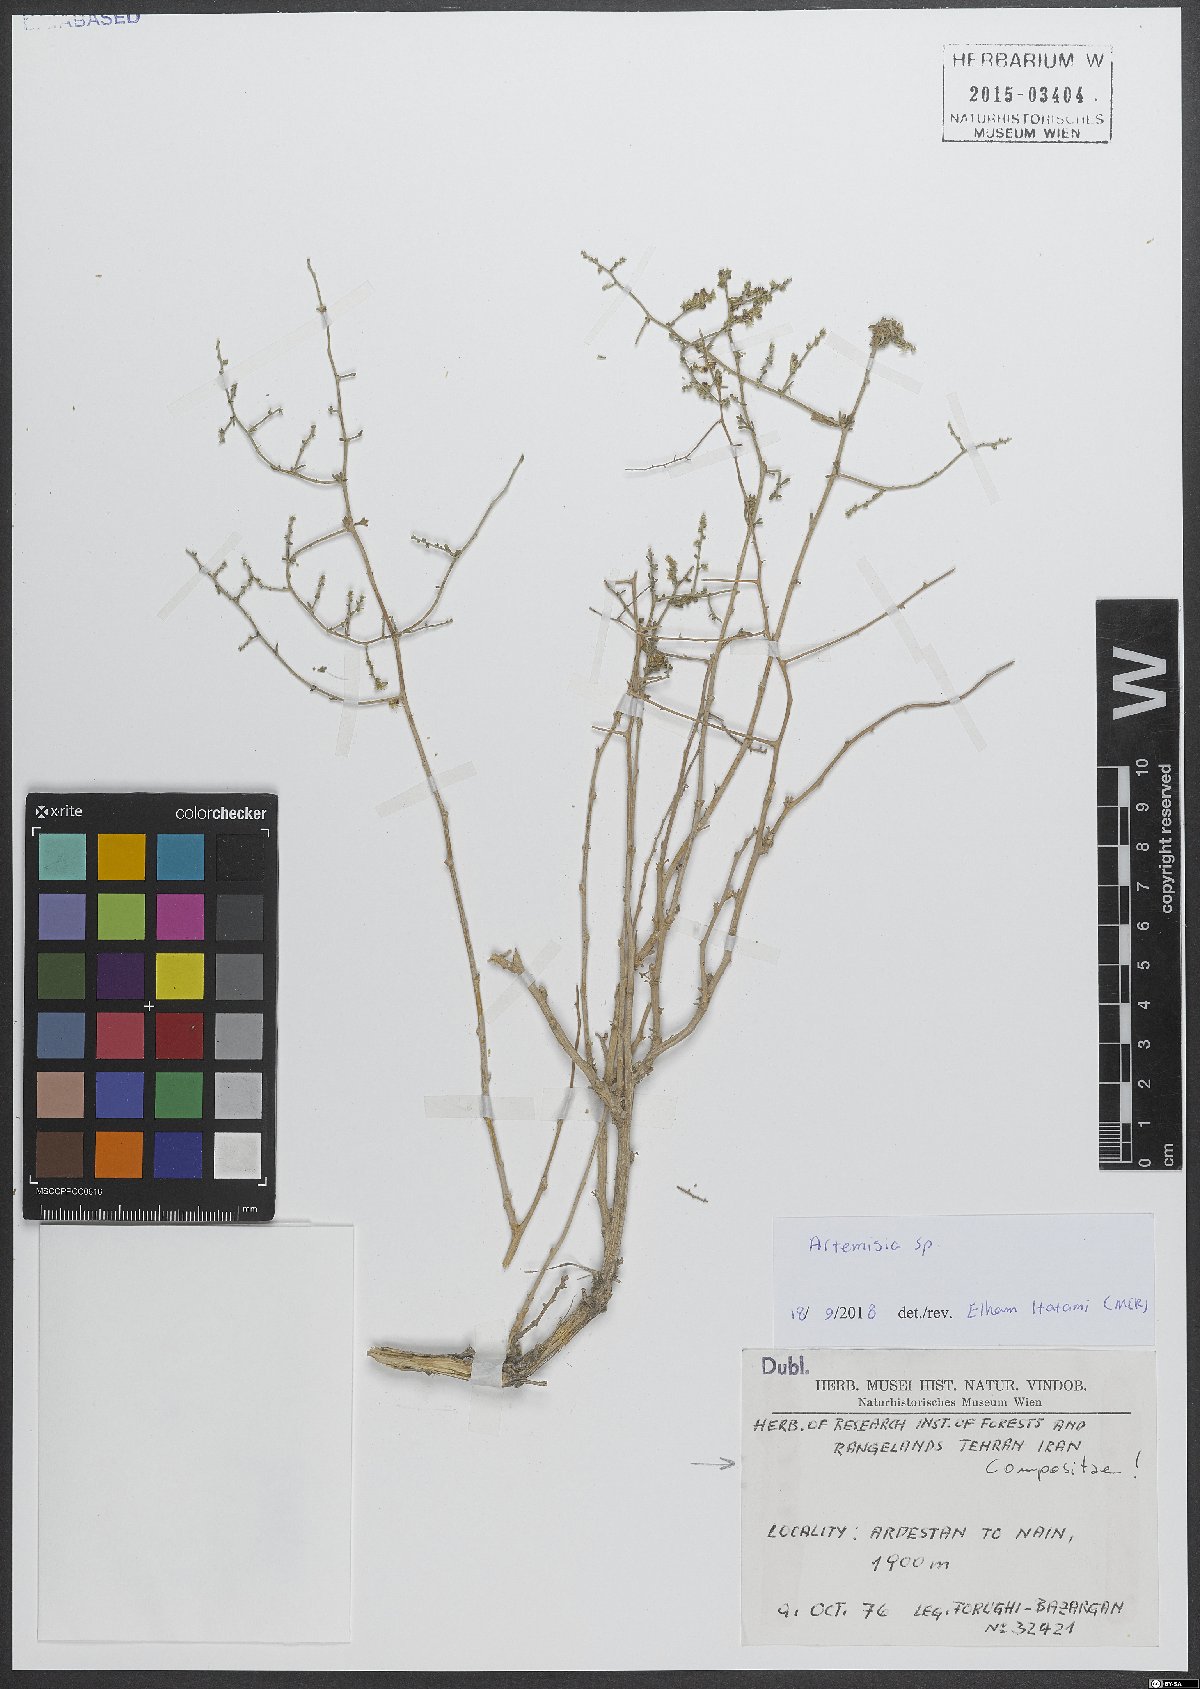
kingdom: Plantae
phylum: Tracheophyta
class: Magnoliopsida
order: Asterales
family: Asteraceae
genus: Artemisia
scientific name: Artemisia
